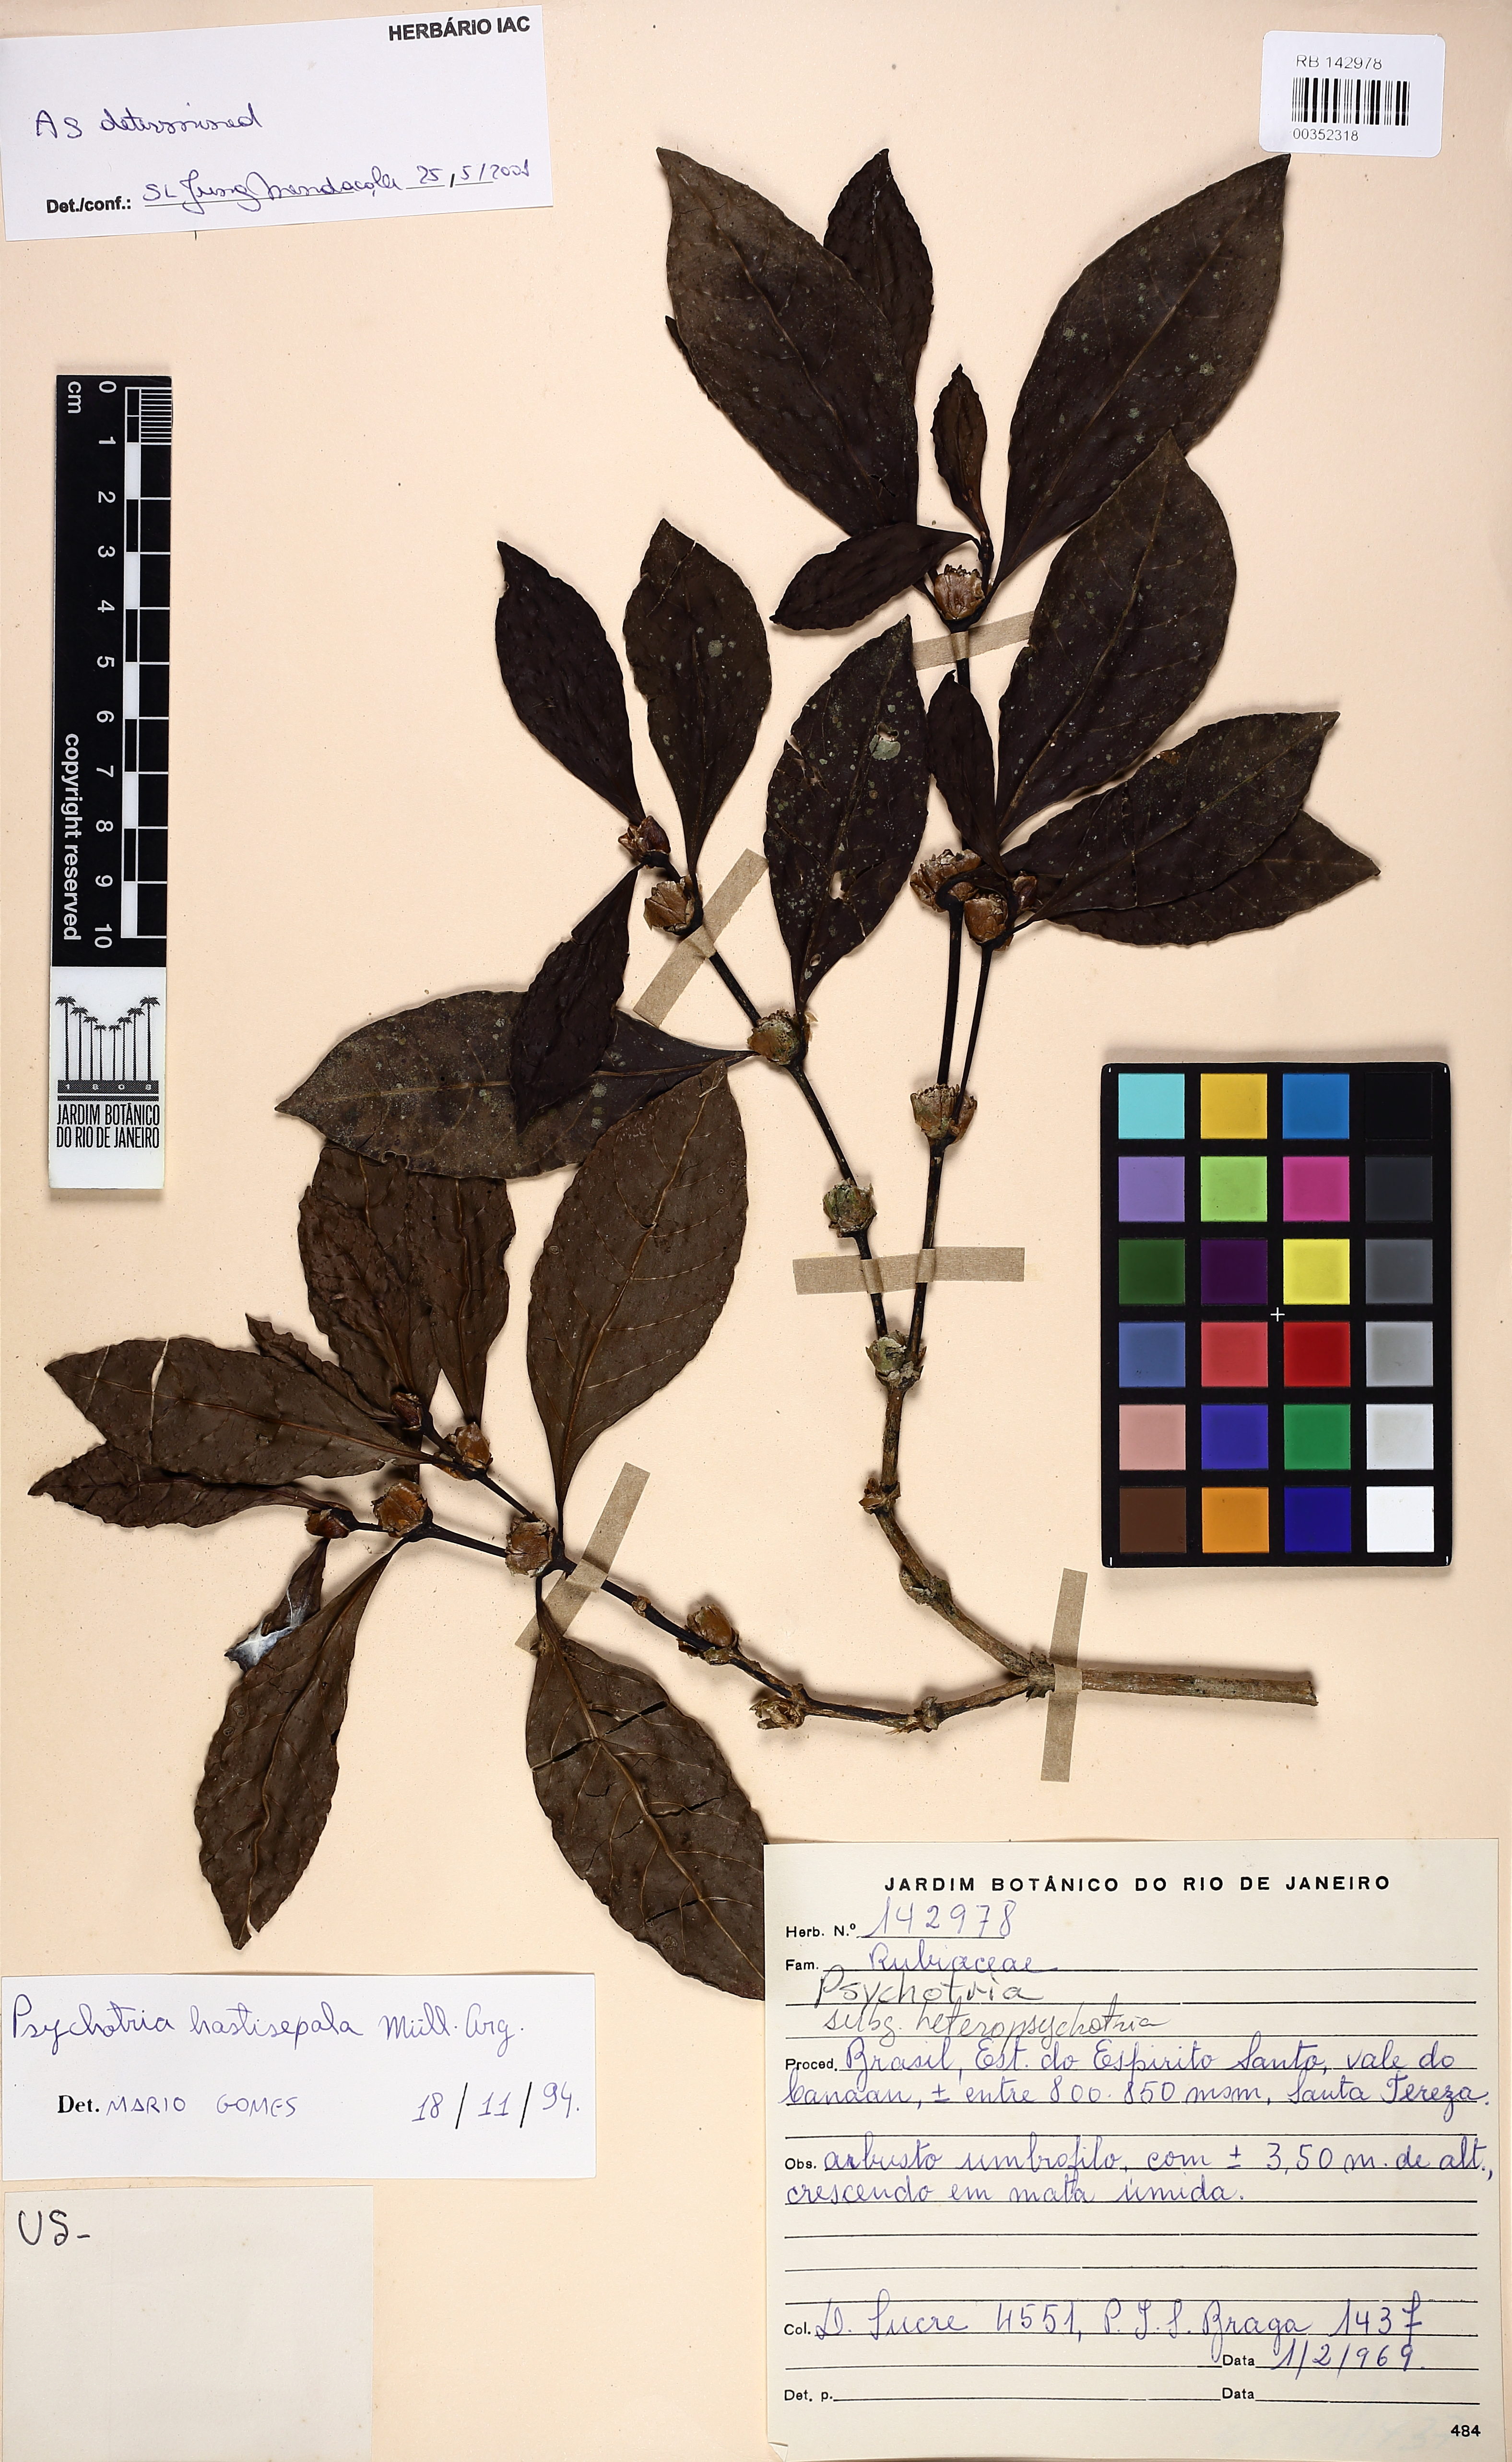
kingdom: Plantae
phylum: Tracheophyta
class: Magnoliopsida
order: Gentianales
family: Rubiaceae
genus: Psychotria
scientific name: Psychotria hastisepala
